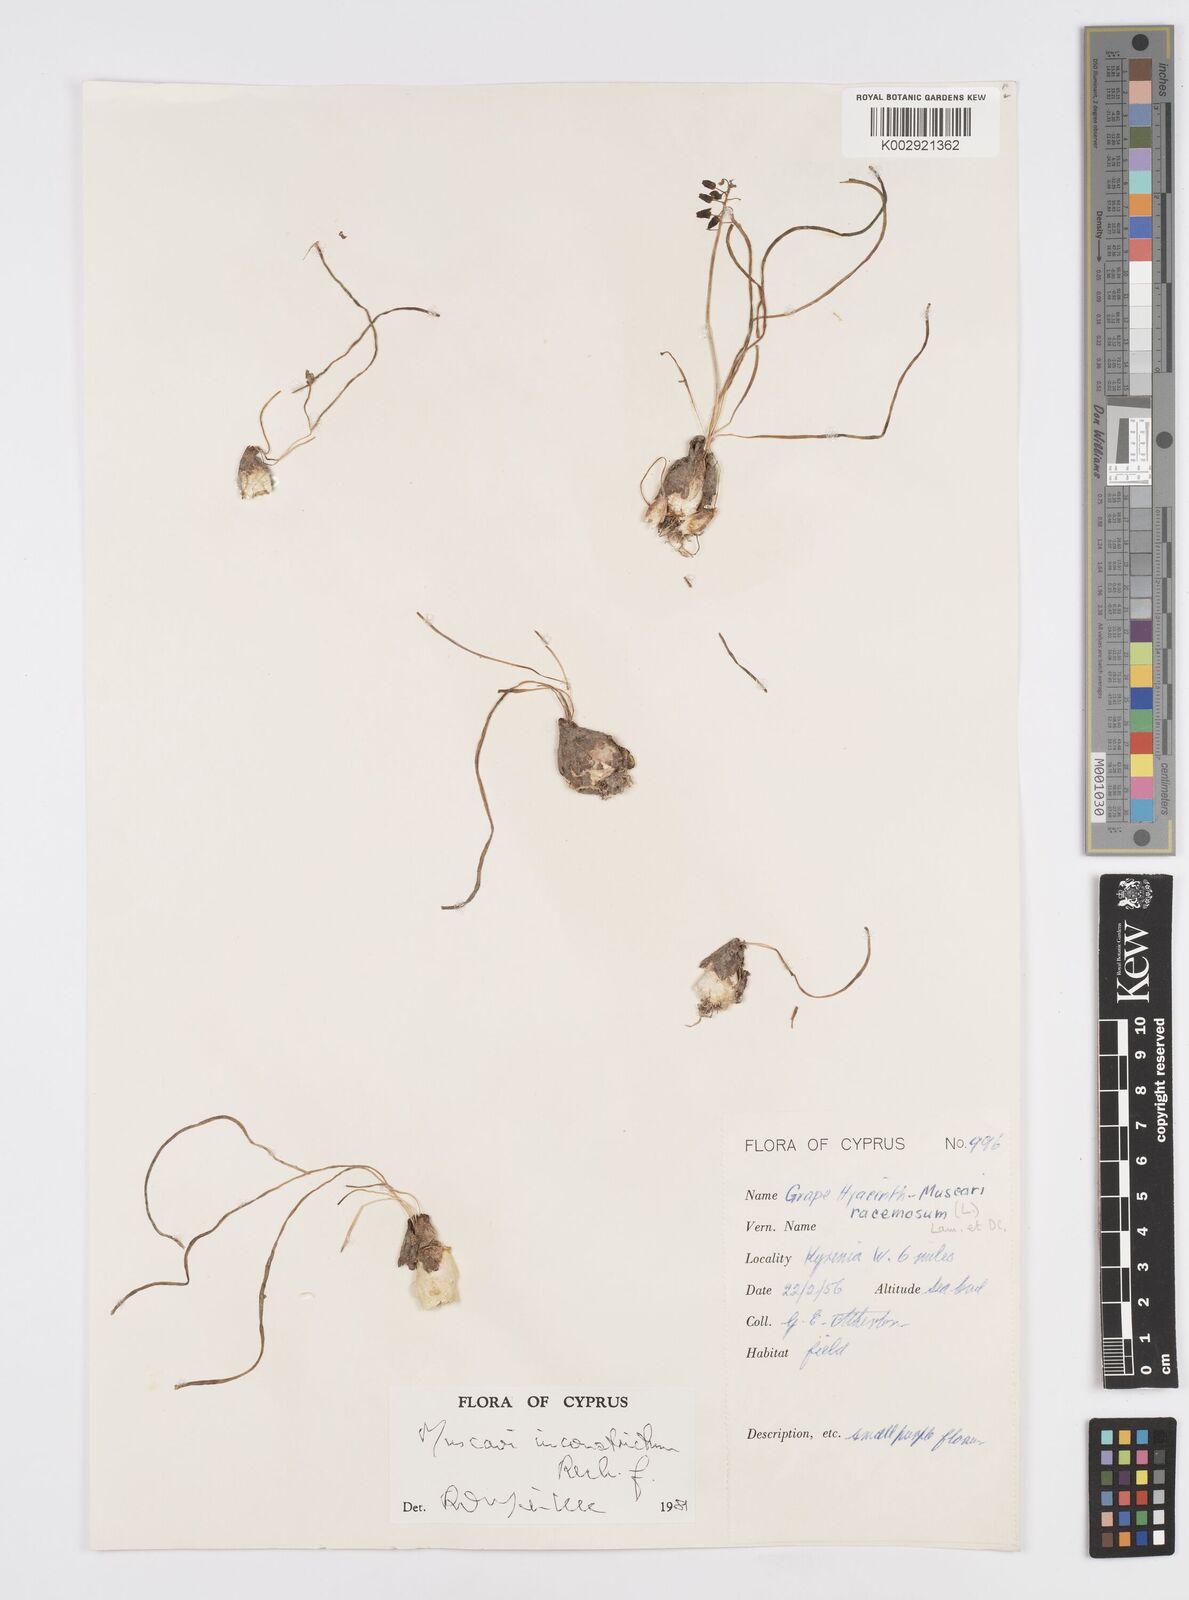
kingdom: Plantae
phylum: Tracheophyta
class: Liliopsida
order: Asparagales
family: Asparagaceae
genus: Muscari
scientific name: Muscari
